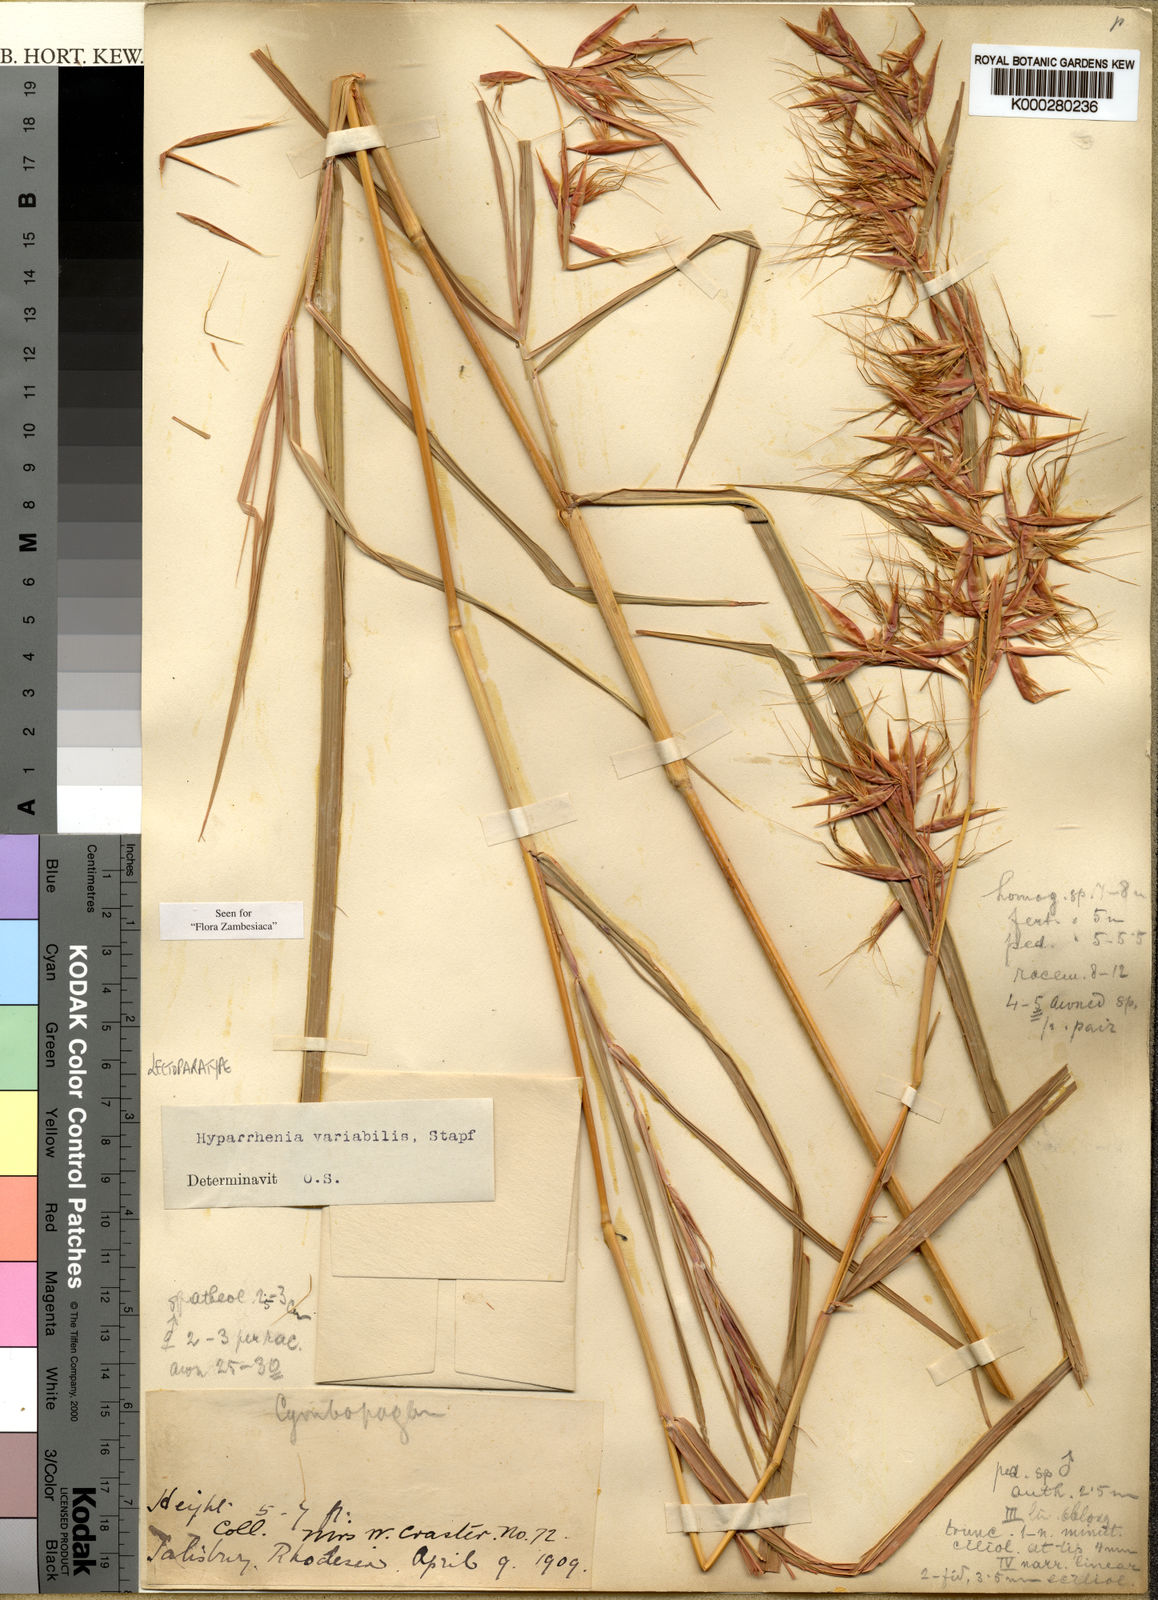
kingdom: Plantae
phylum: Tracheophyta
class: Liliopsida
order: Poales
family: Poaceae
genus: Hyparrhenia
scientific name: Hyparrhenia variabilis
